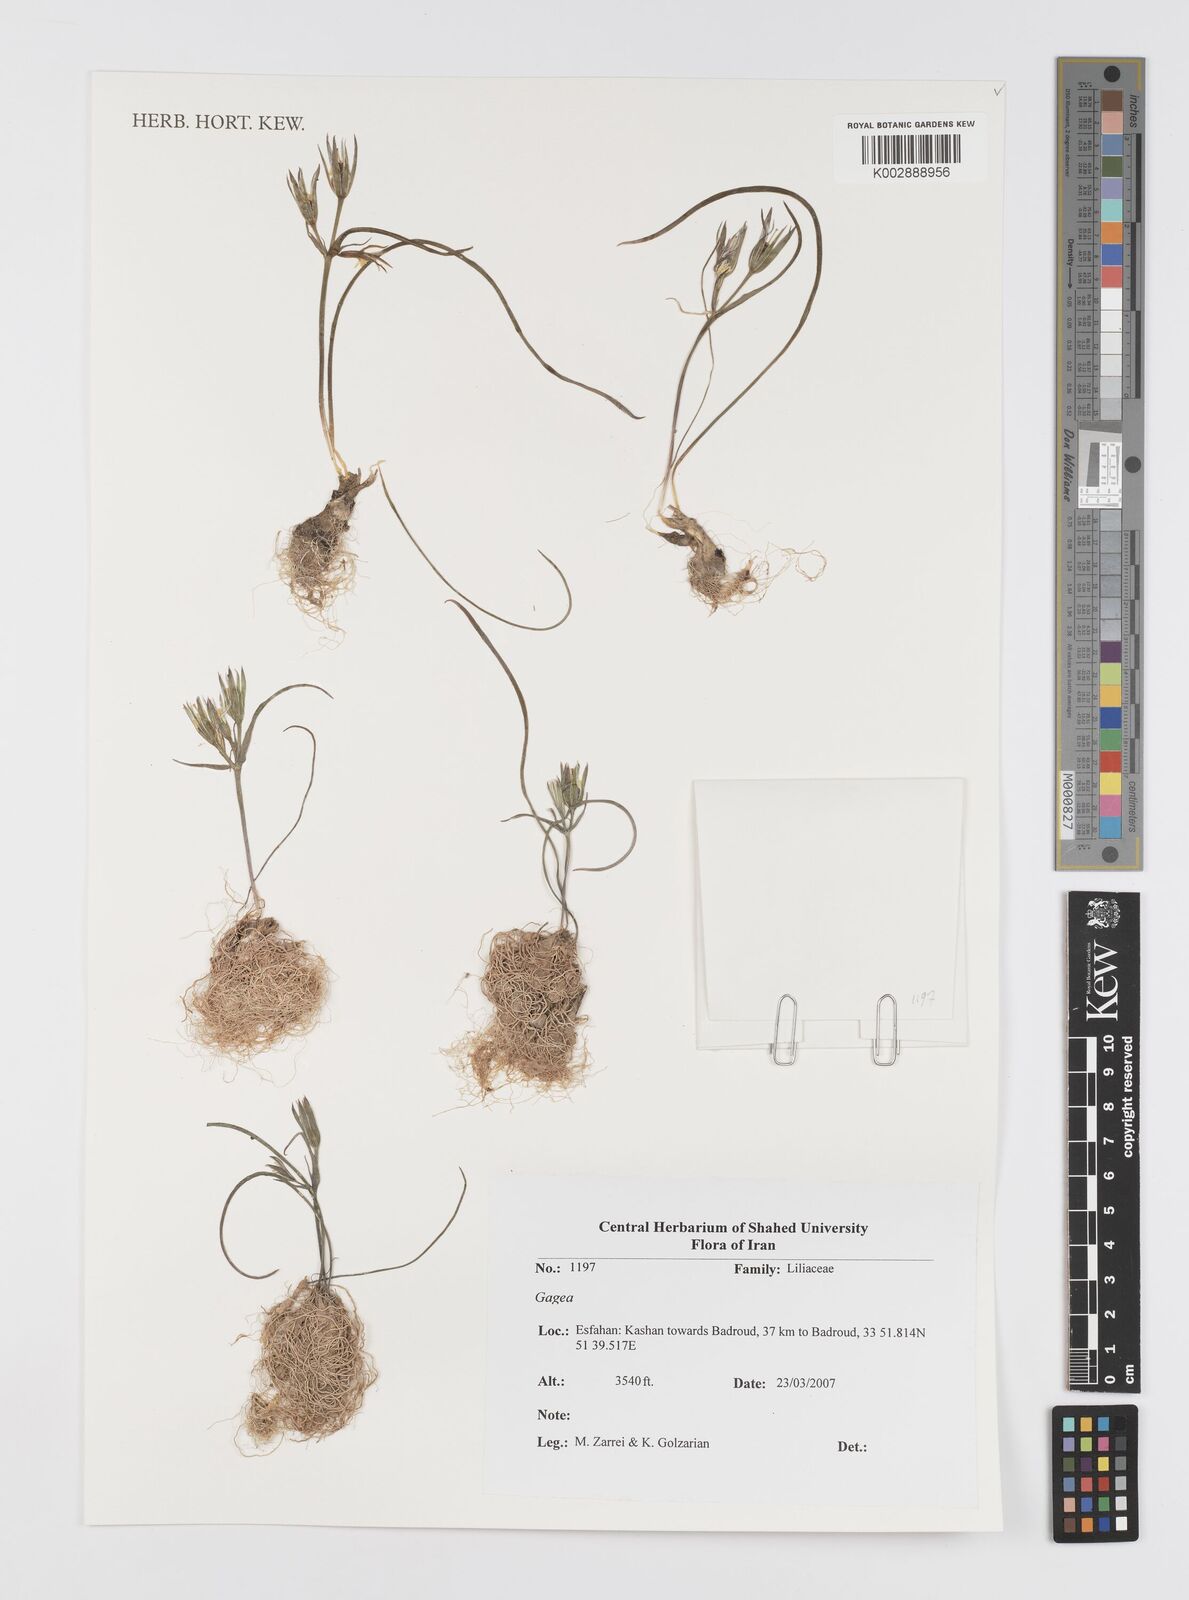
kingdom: Plantae
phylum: Tracheophyta
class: Liliopsida
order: Liliales
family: Liliaceae
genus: Gagea
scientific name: Gagea
